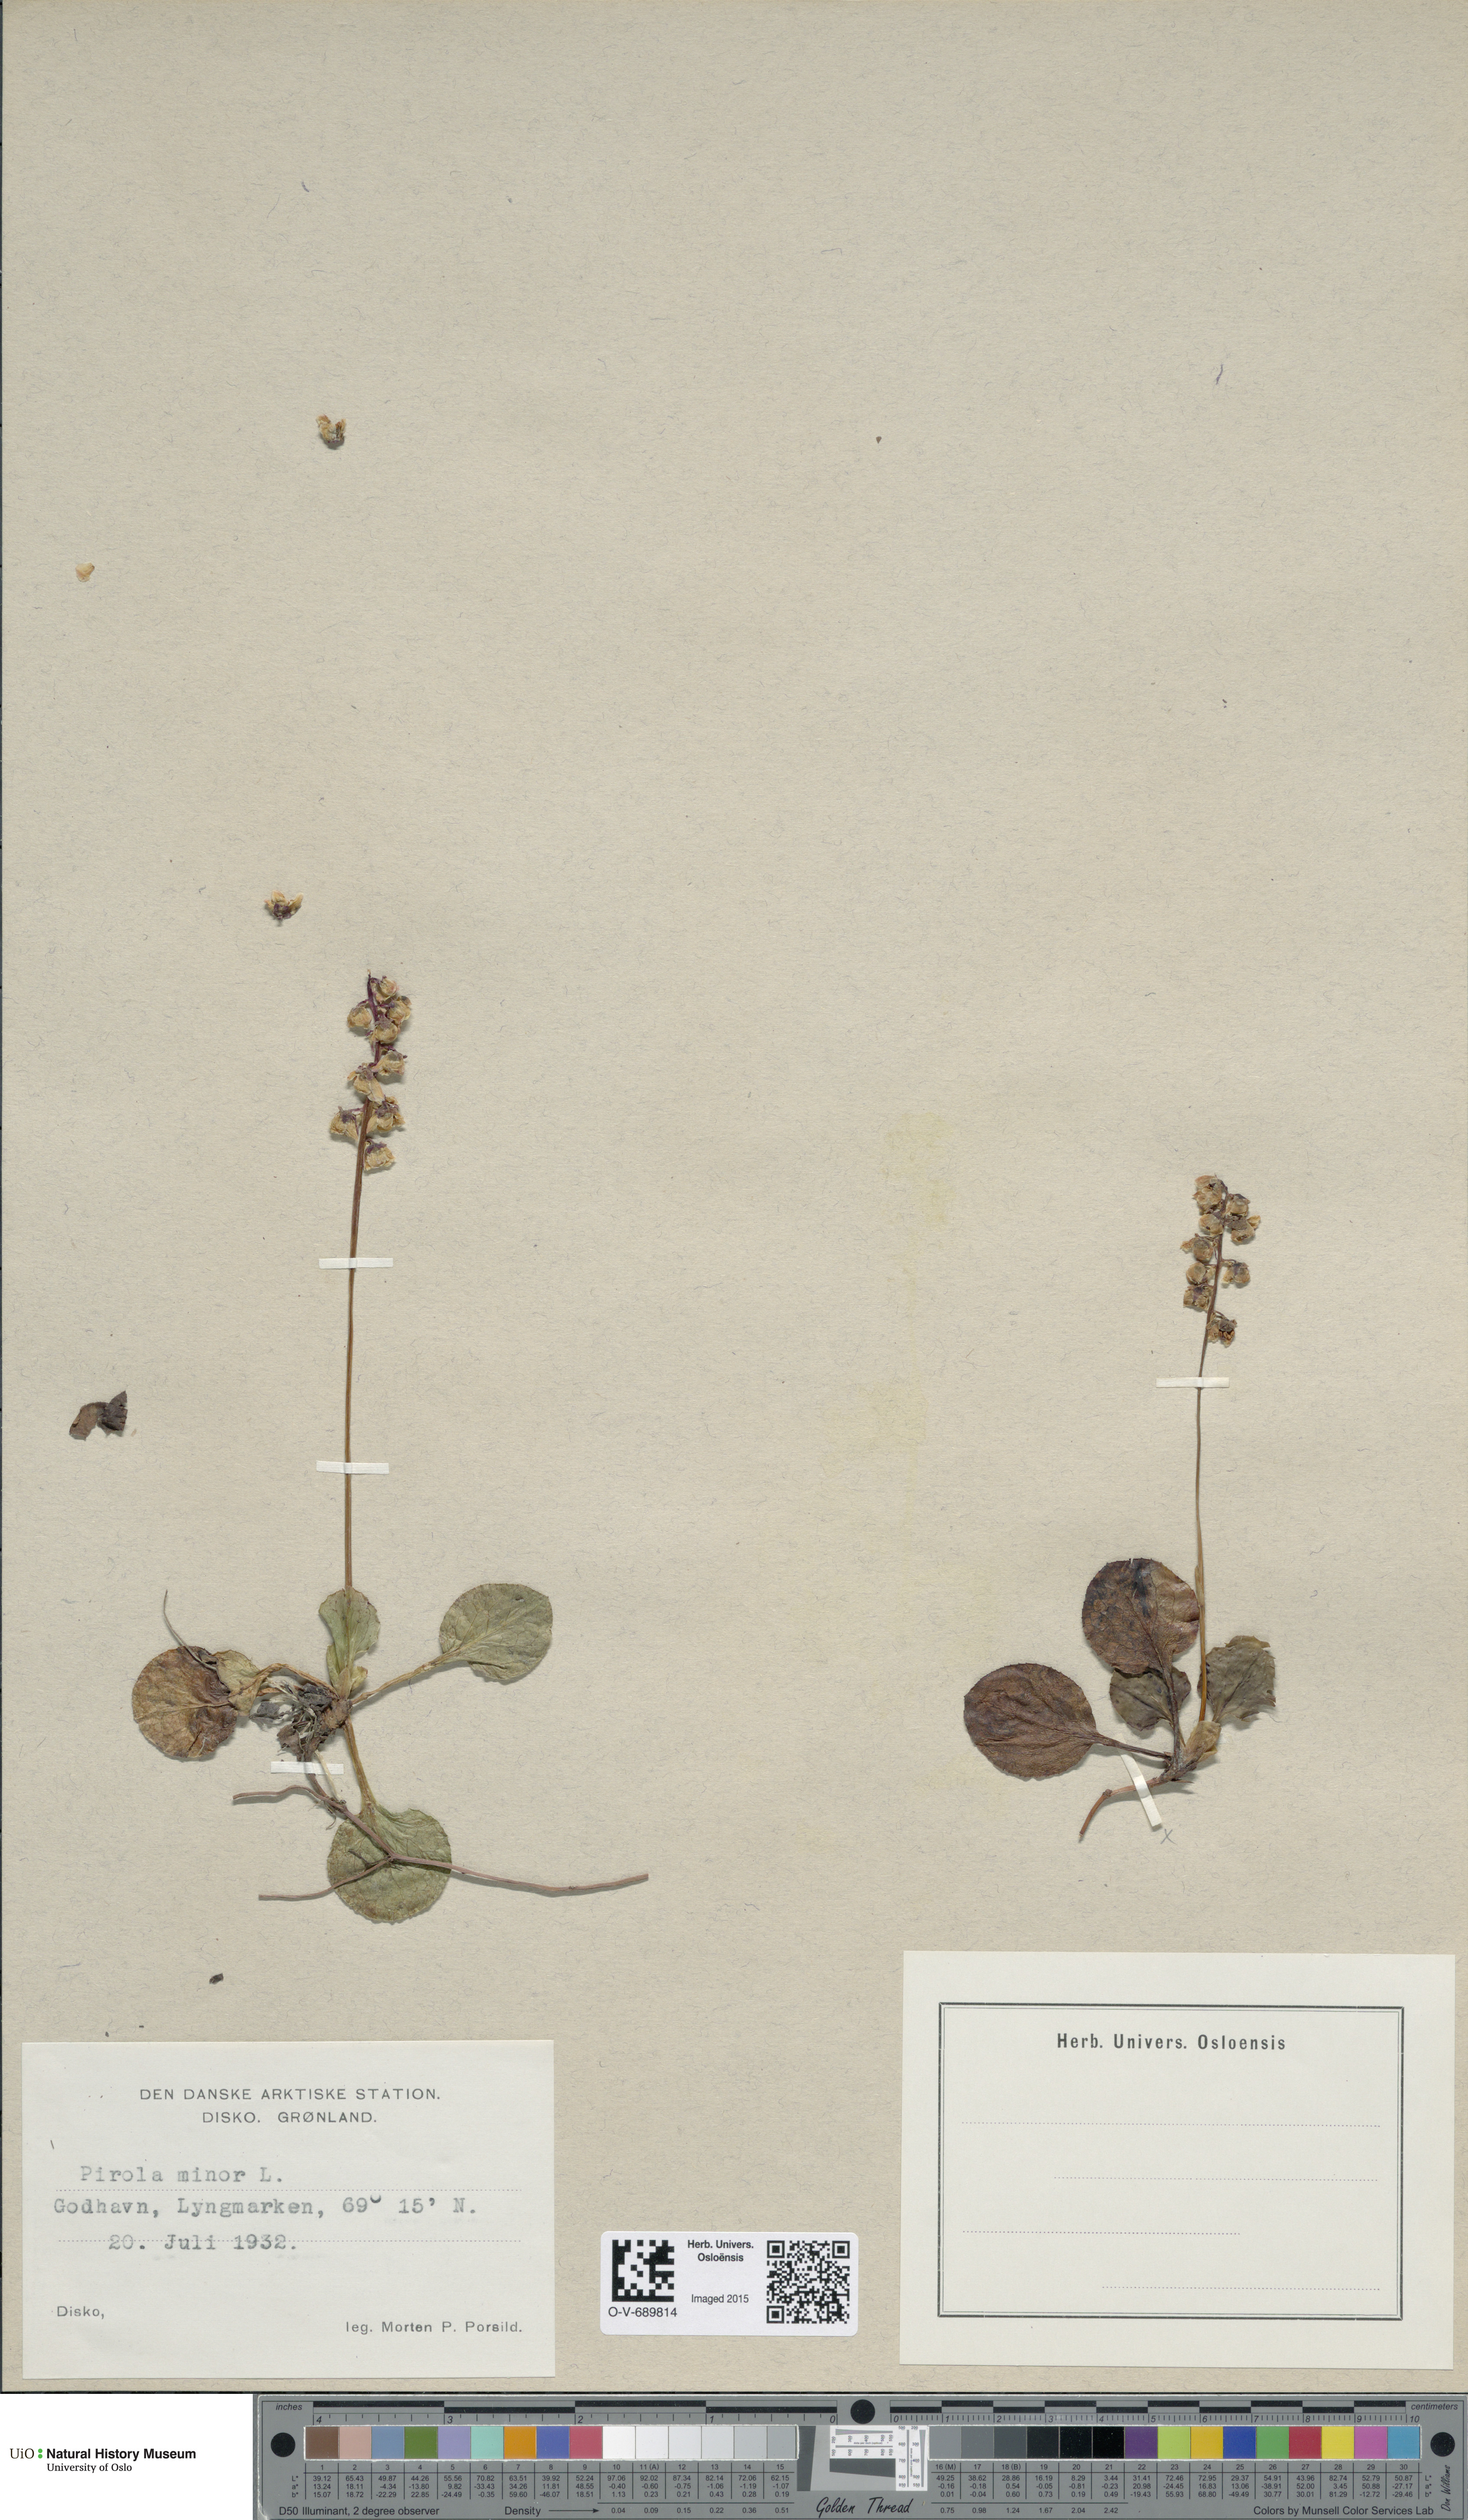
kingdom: Plantae
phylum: Tracheophyta
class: Magnoliopsida
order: Ericales
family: Ericaceae
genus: Pyrola
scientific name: Pyrola minor
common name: Common wintergreen
